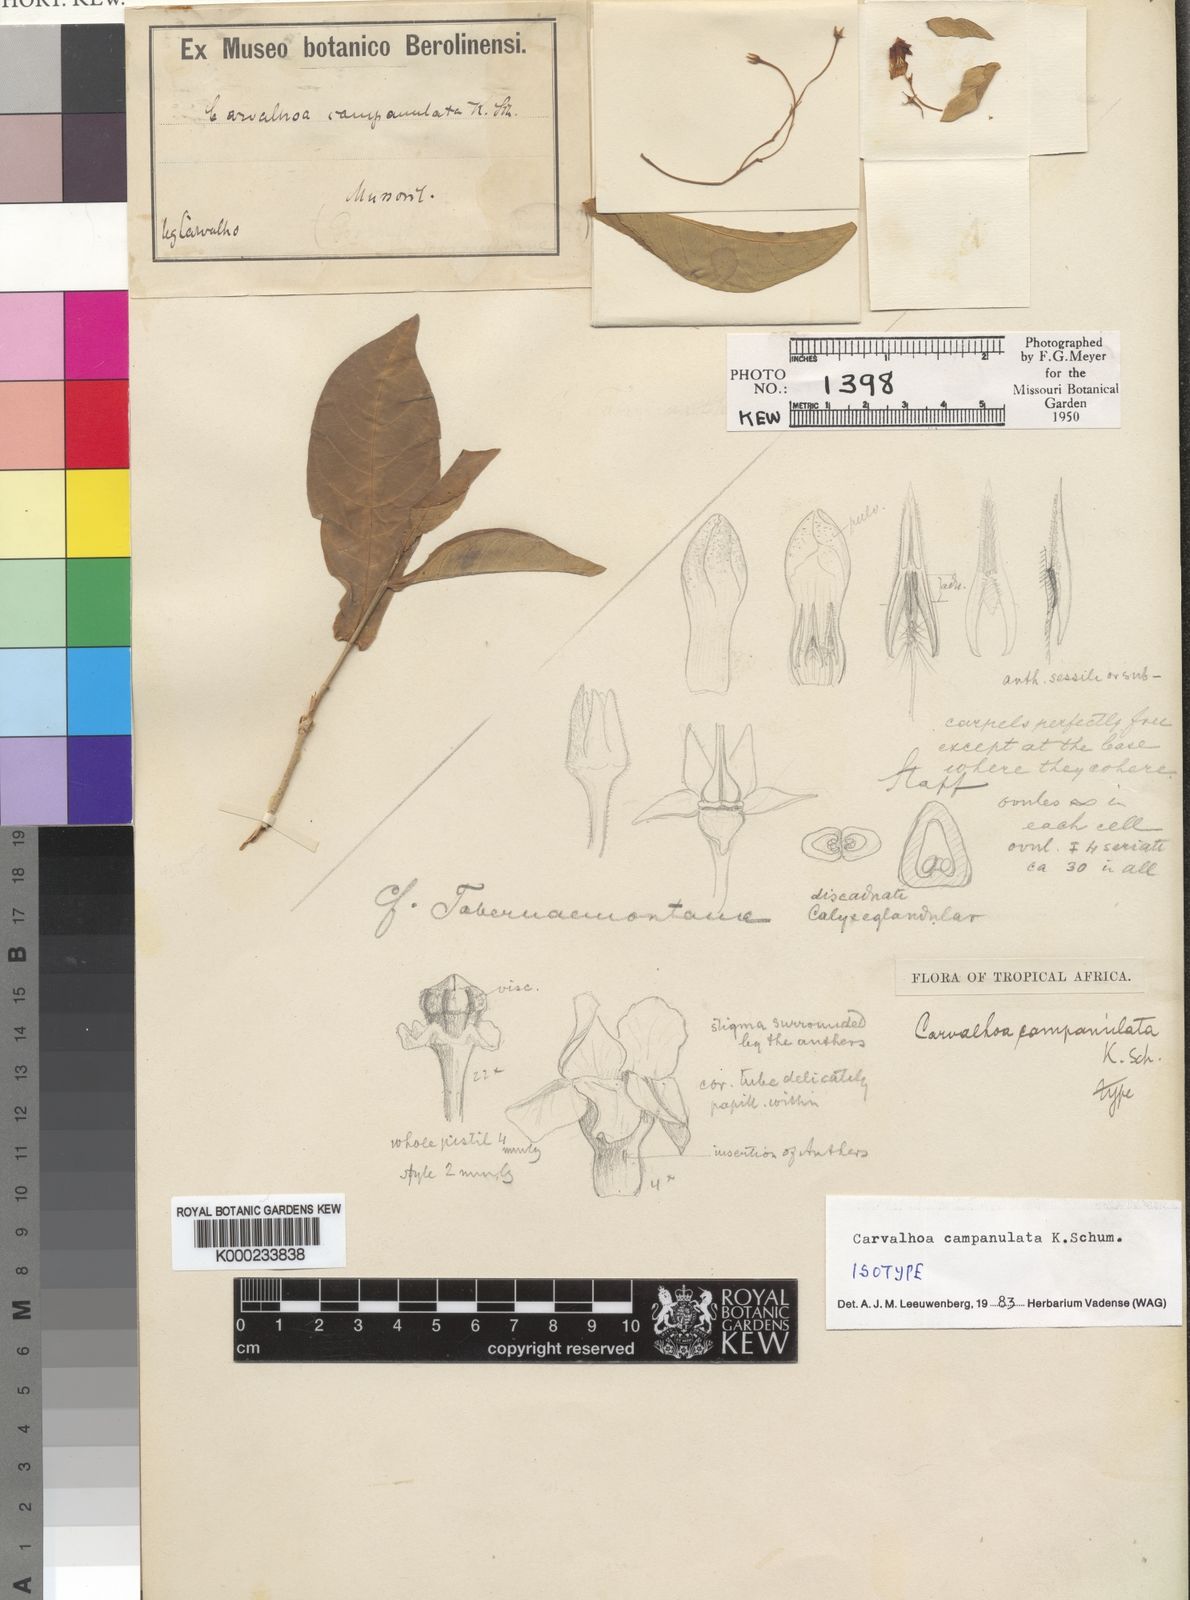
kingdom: Plantae
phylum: Tracheophyta
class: Magnoliopsida
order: Gentianales
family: Apocynaceae
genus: Carvalhoa
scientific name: Carvalhoa campanulata
